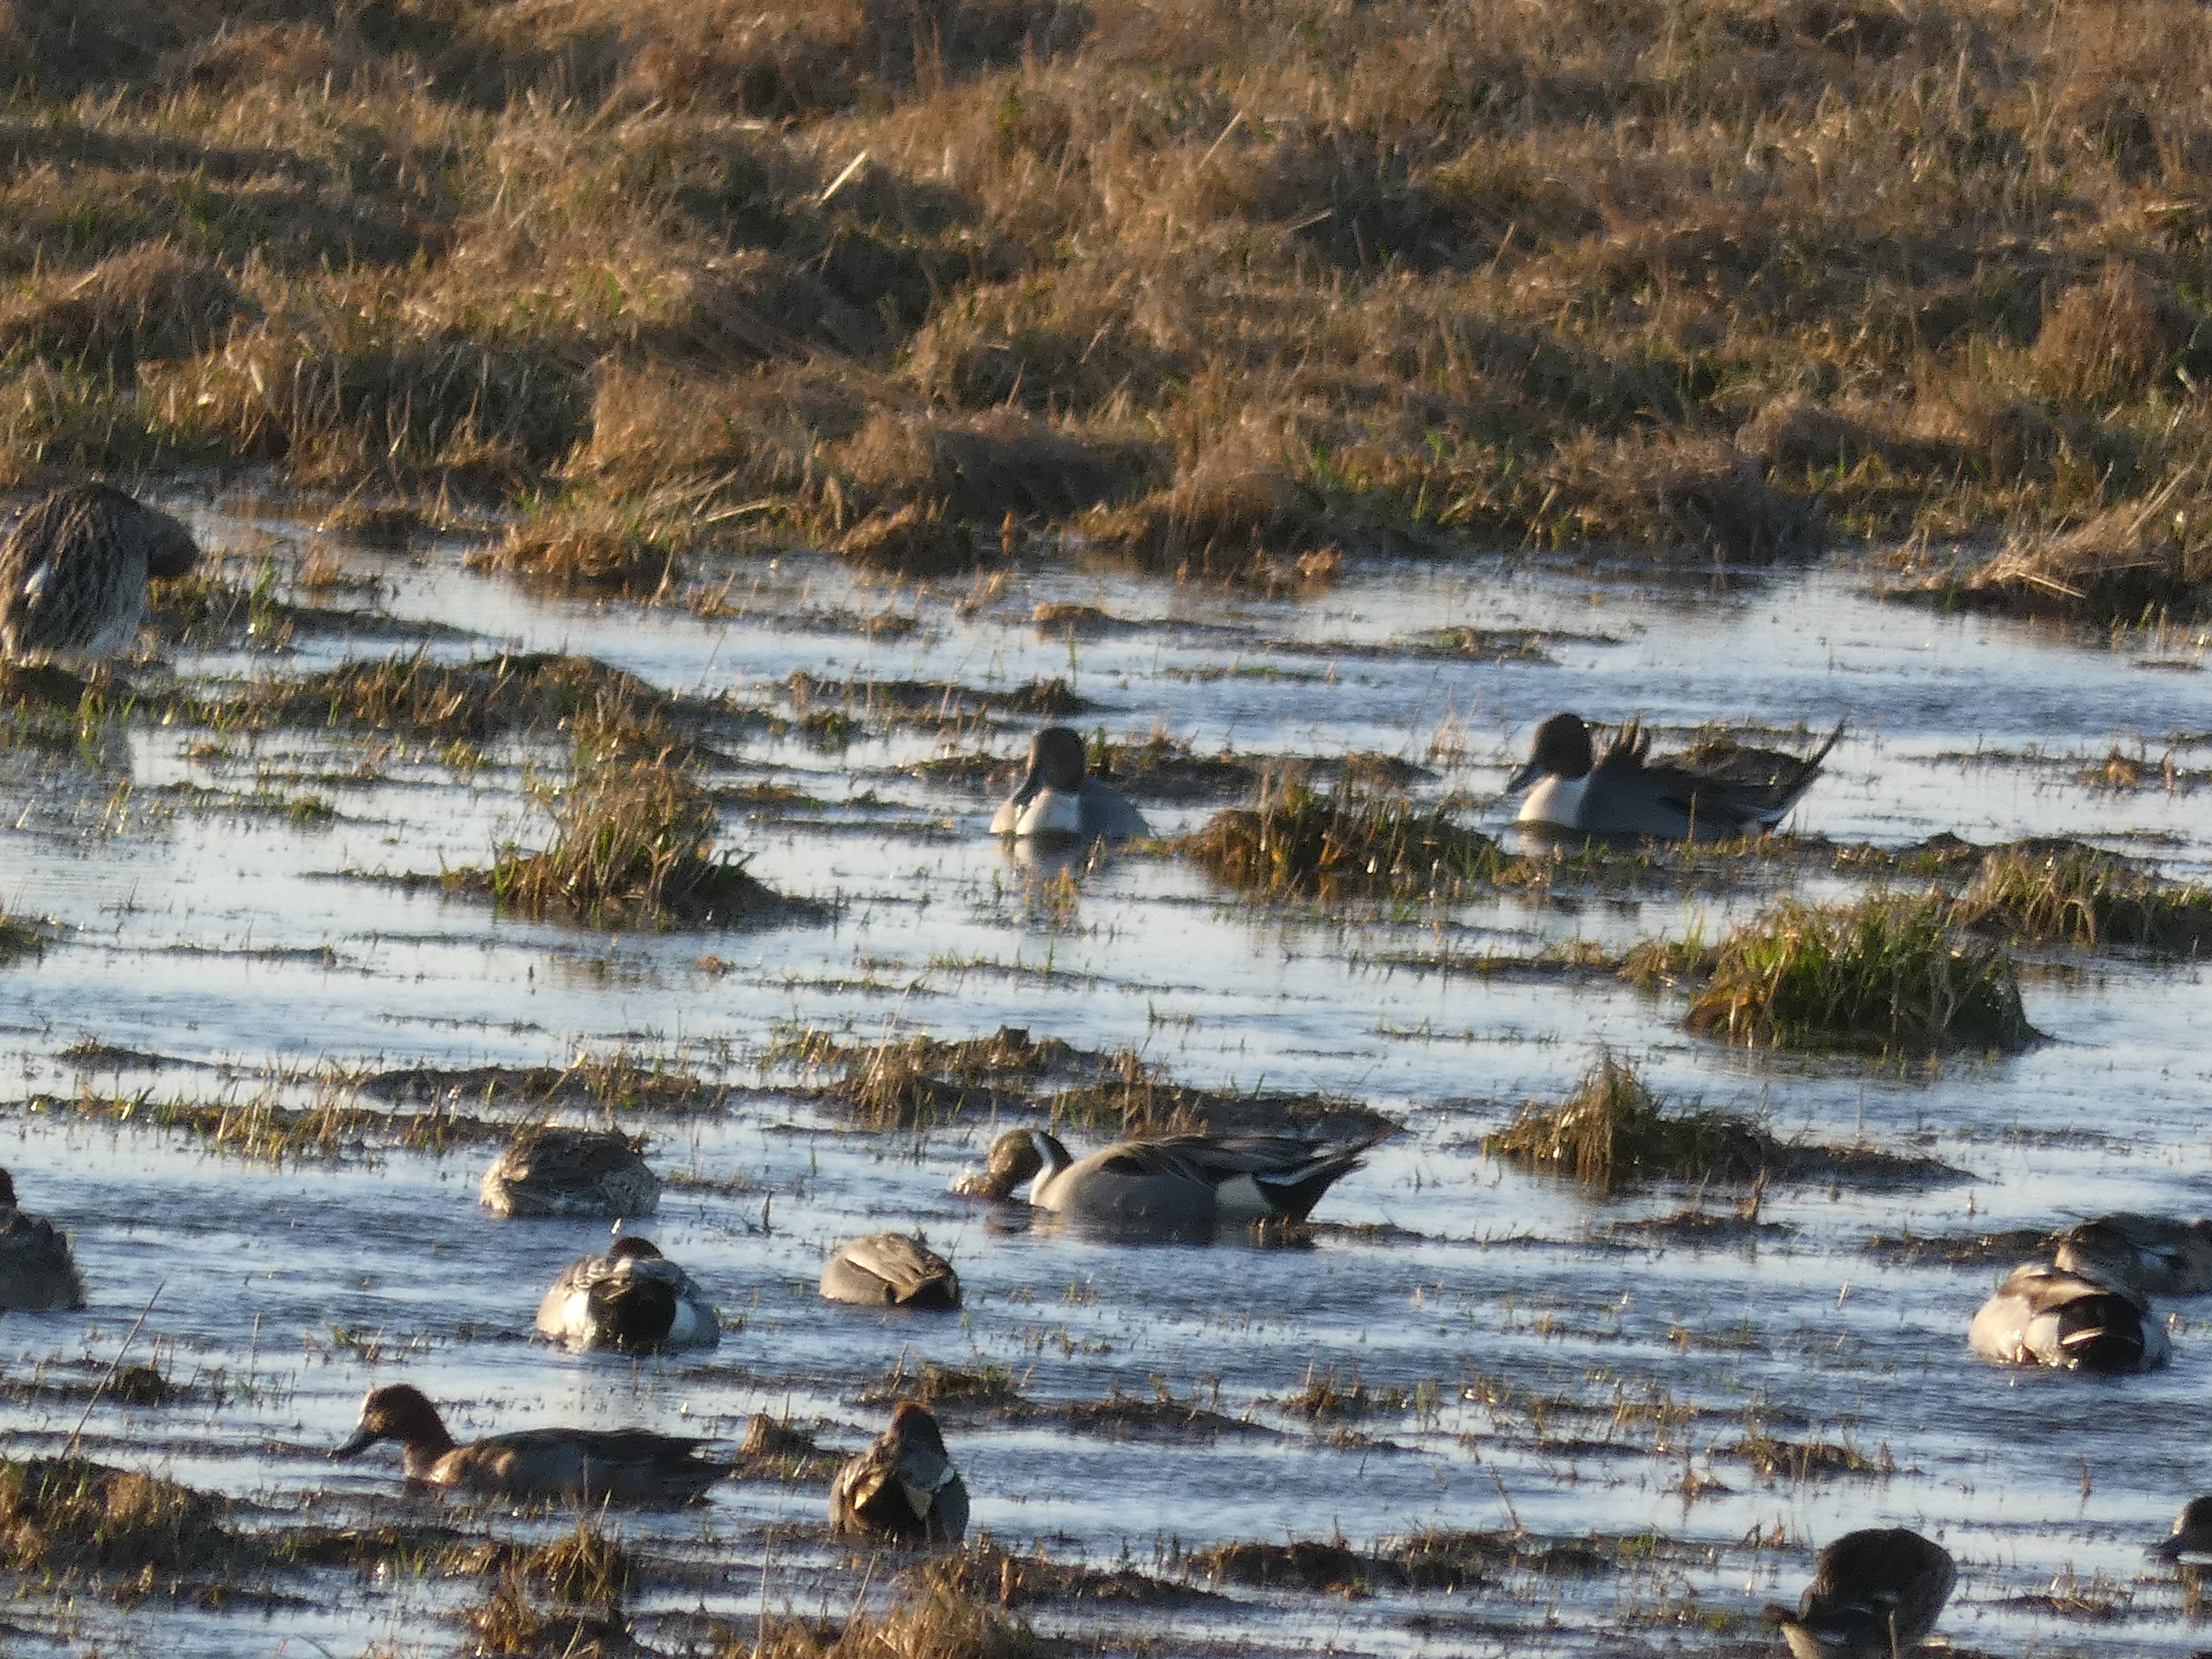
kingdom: Animalia
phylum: Chordata
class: Aves
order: Anseriformes
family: Anatidae
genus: Anas
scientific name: Anas acuta
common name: Spidsand
